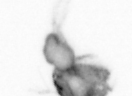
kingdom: Animalia
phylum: Arthropoda
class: Copepoda
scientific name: Copepoda
